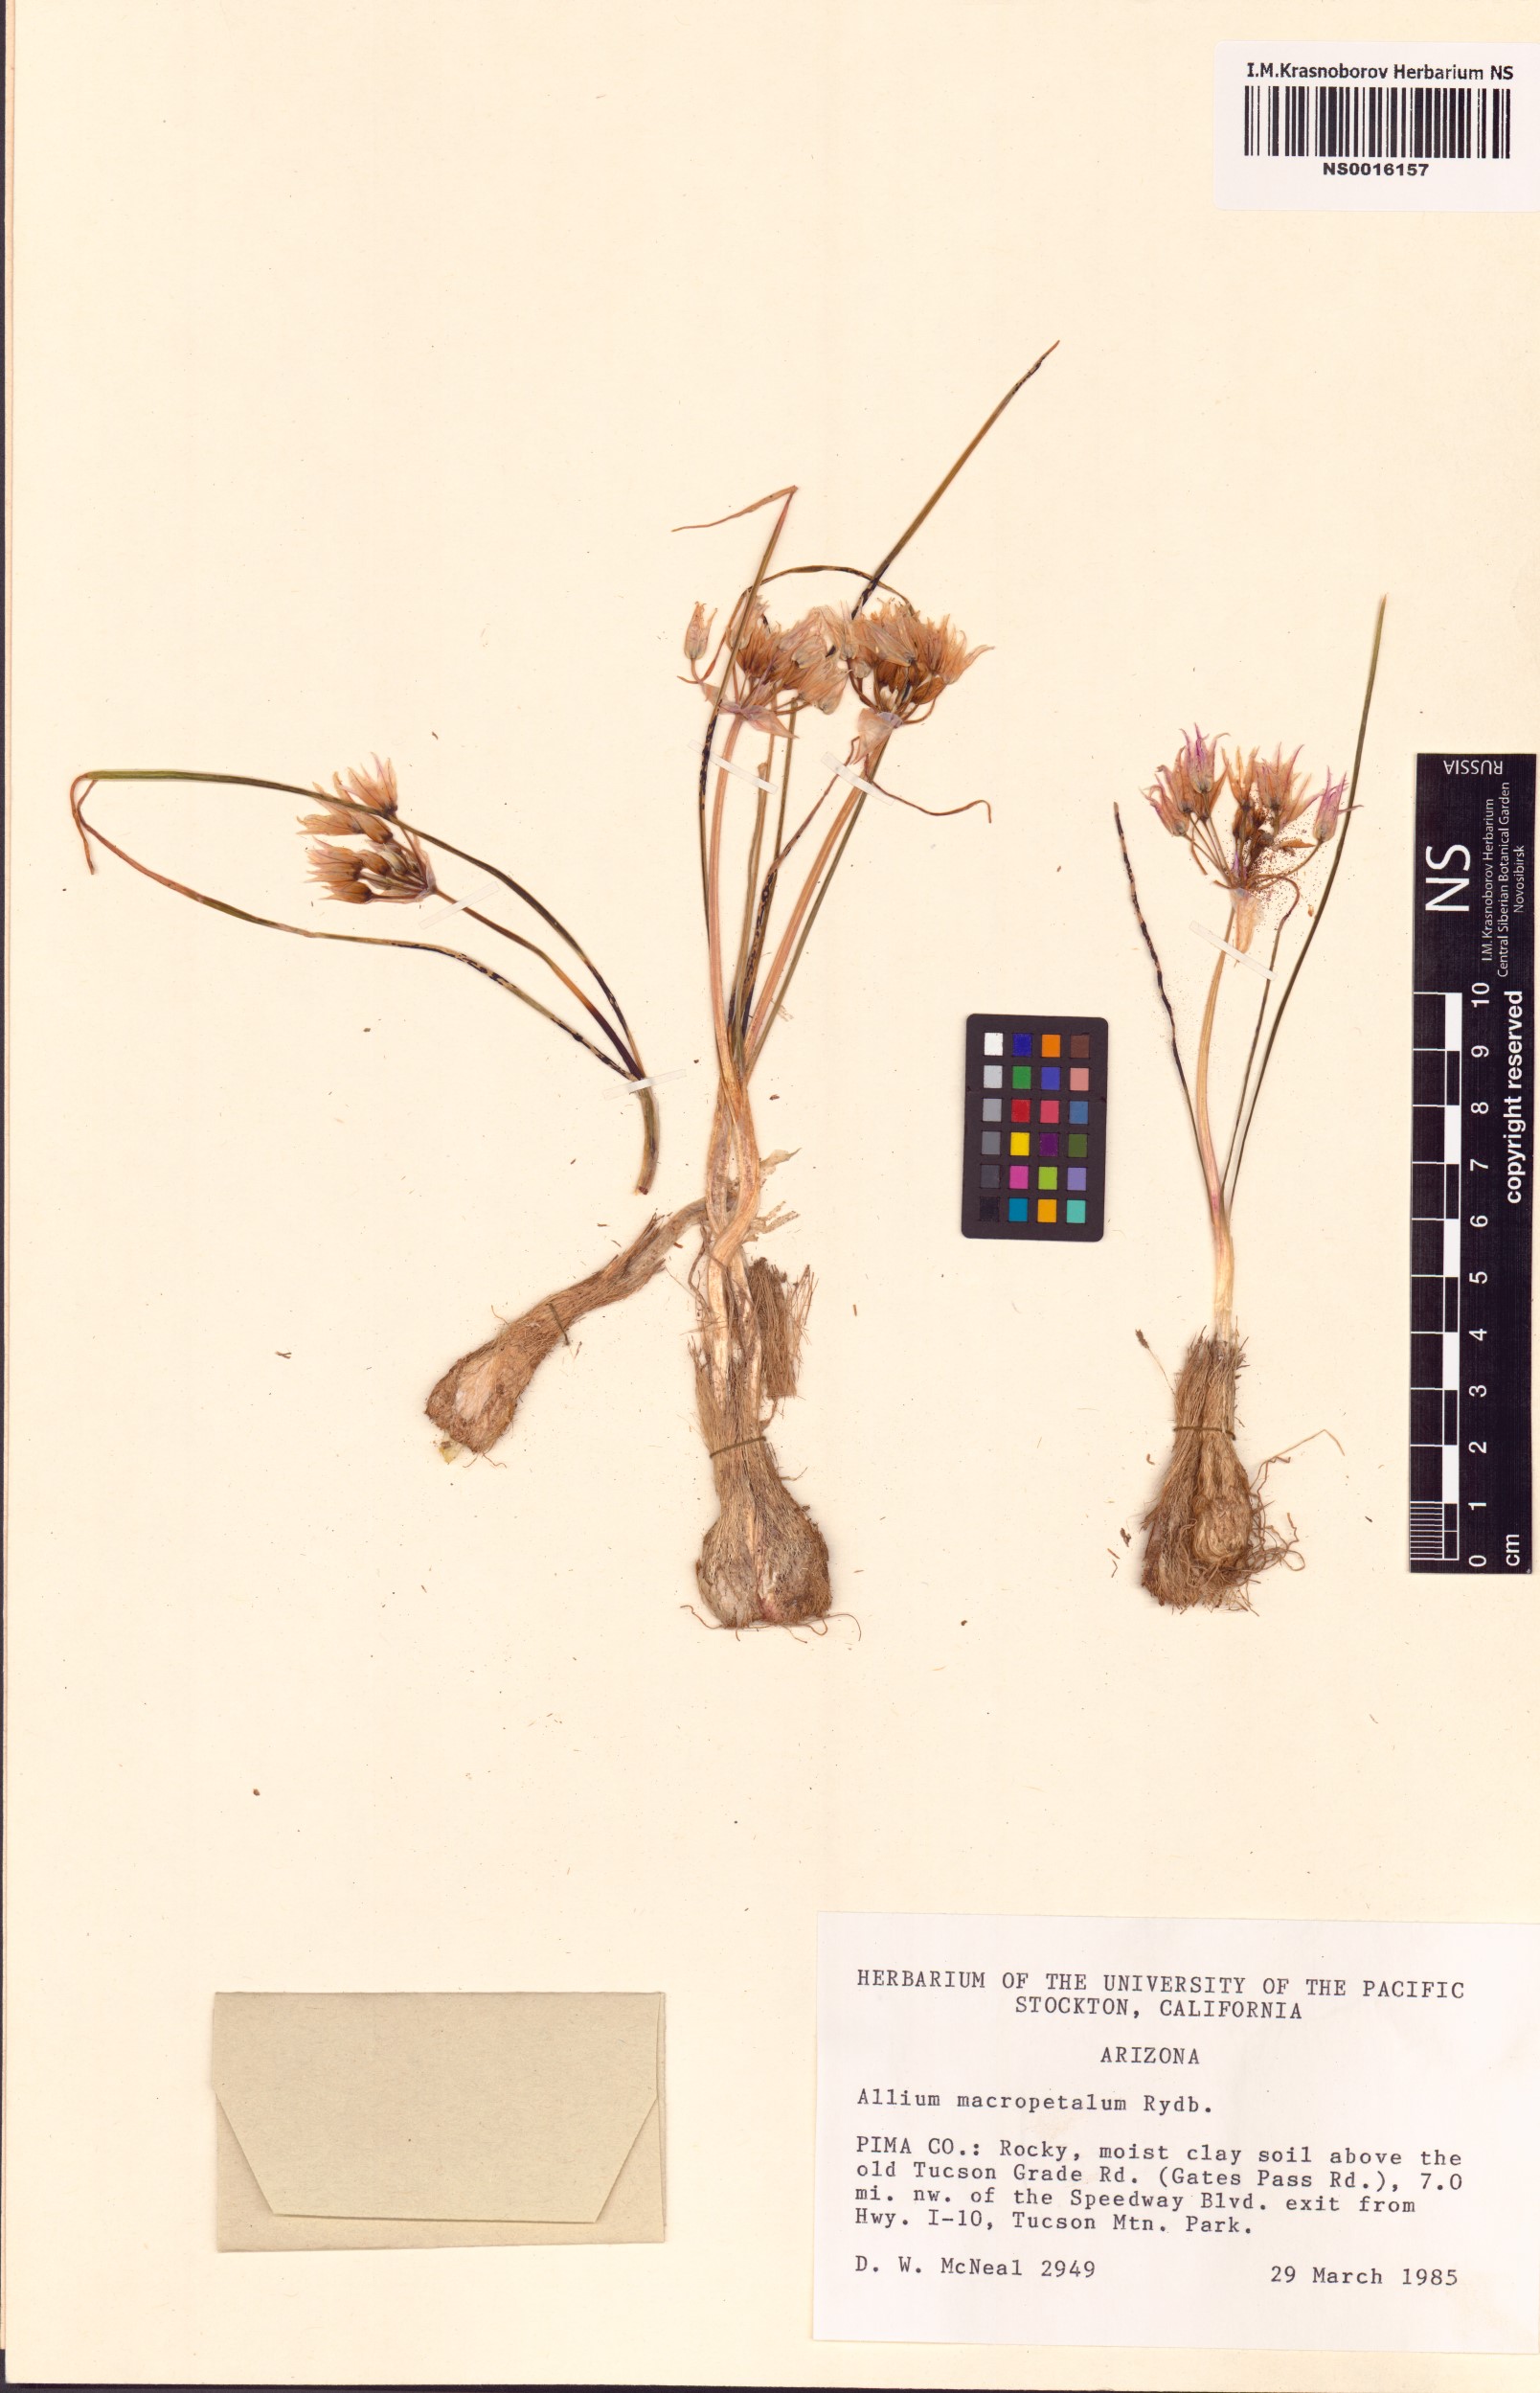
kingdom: Plantae
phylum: Tracheophyta
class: Liliopsida
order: Asparagales
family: Amaryllidaceae
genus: Allium
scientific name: Allium macropetalum
